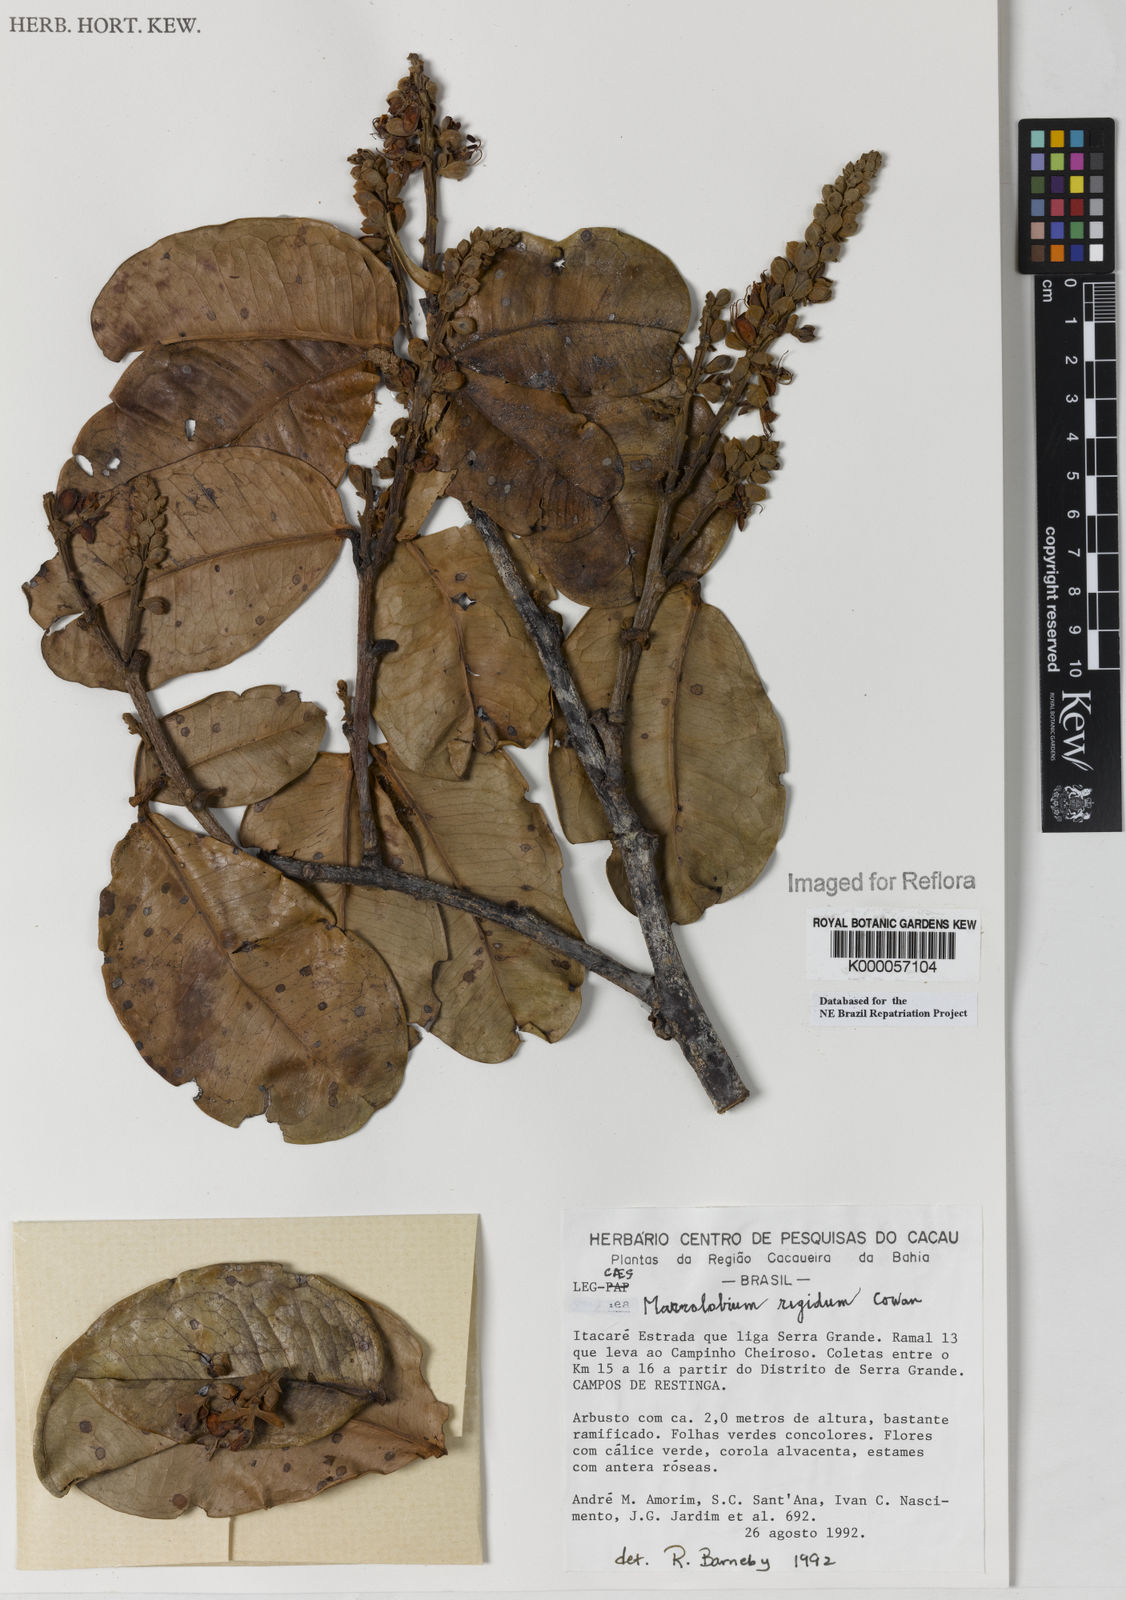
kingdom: Plantae
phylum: Tracheophyta
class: Magnoliopsida
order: Fabales
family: Fabaceae
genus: Macrolobium
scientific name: Macrolobium rigidum
